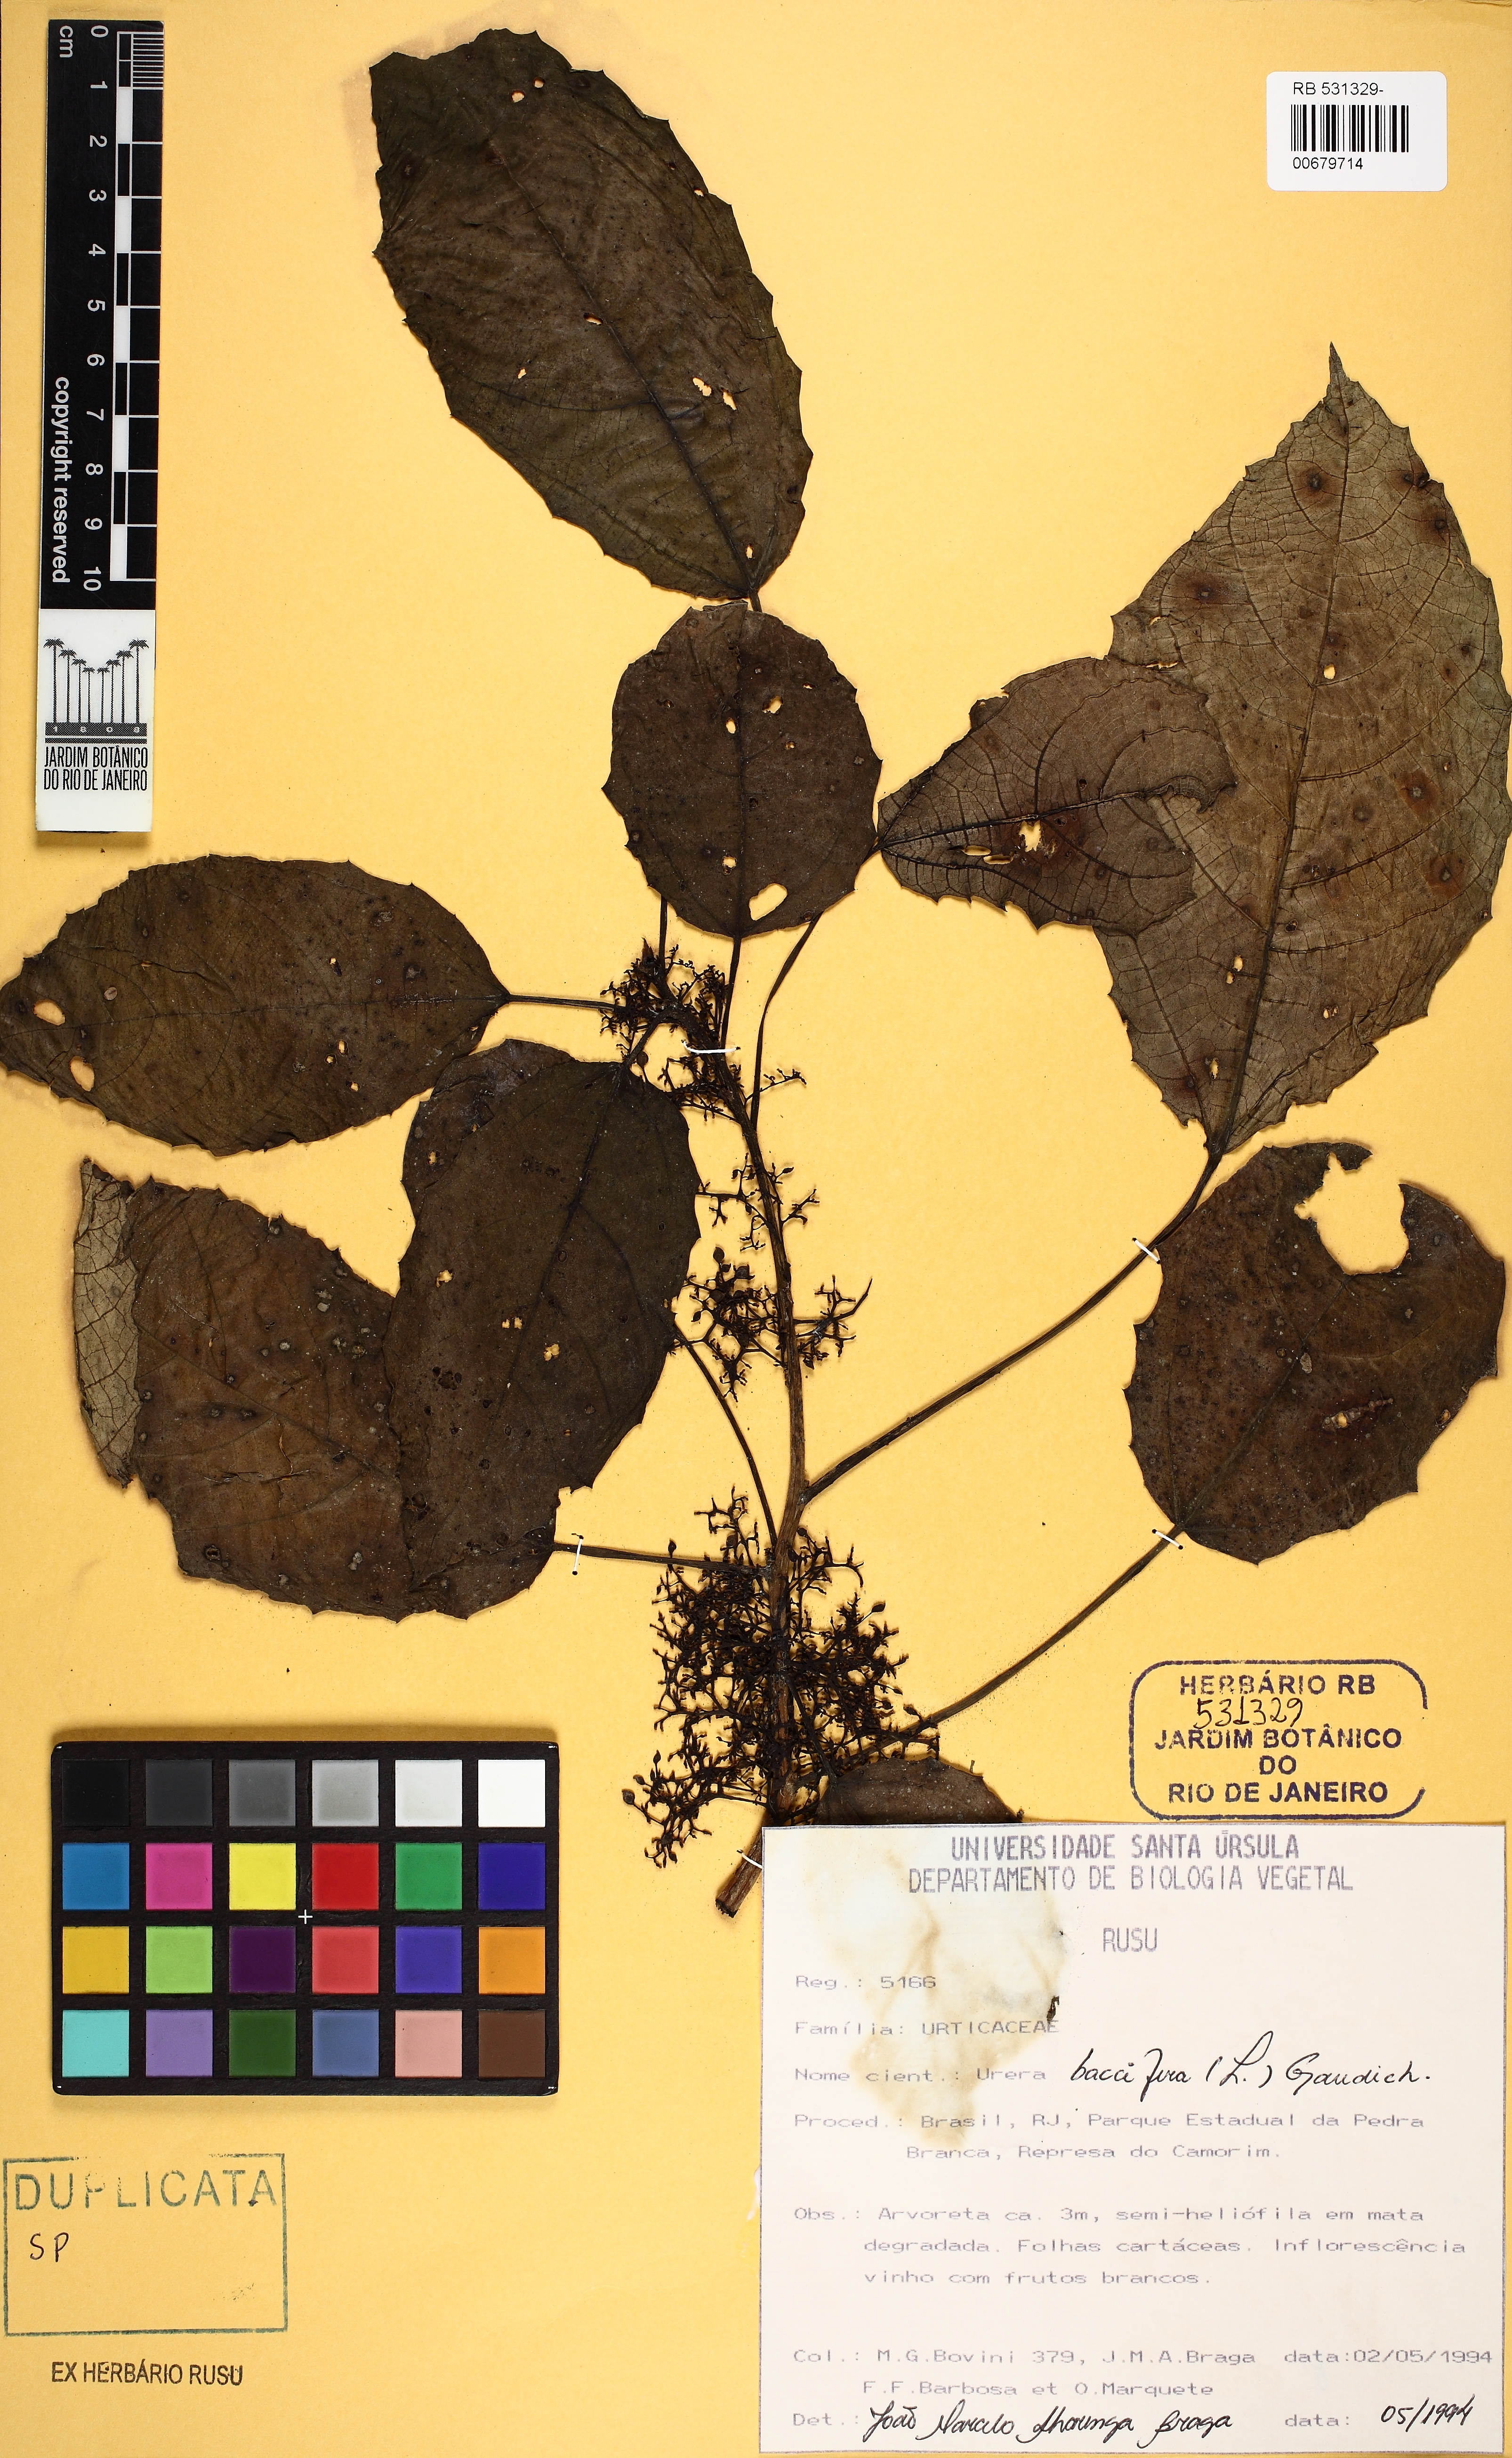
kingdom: Plantae
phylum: Tracheophyta
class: Magnoliopsida
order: Rosales
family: Urticaceae
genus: Urera
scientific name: Urera nitida
